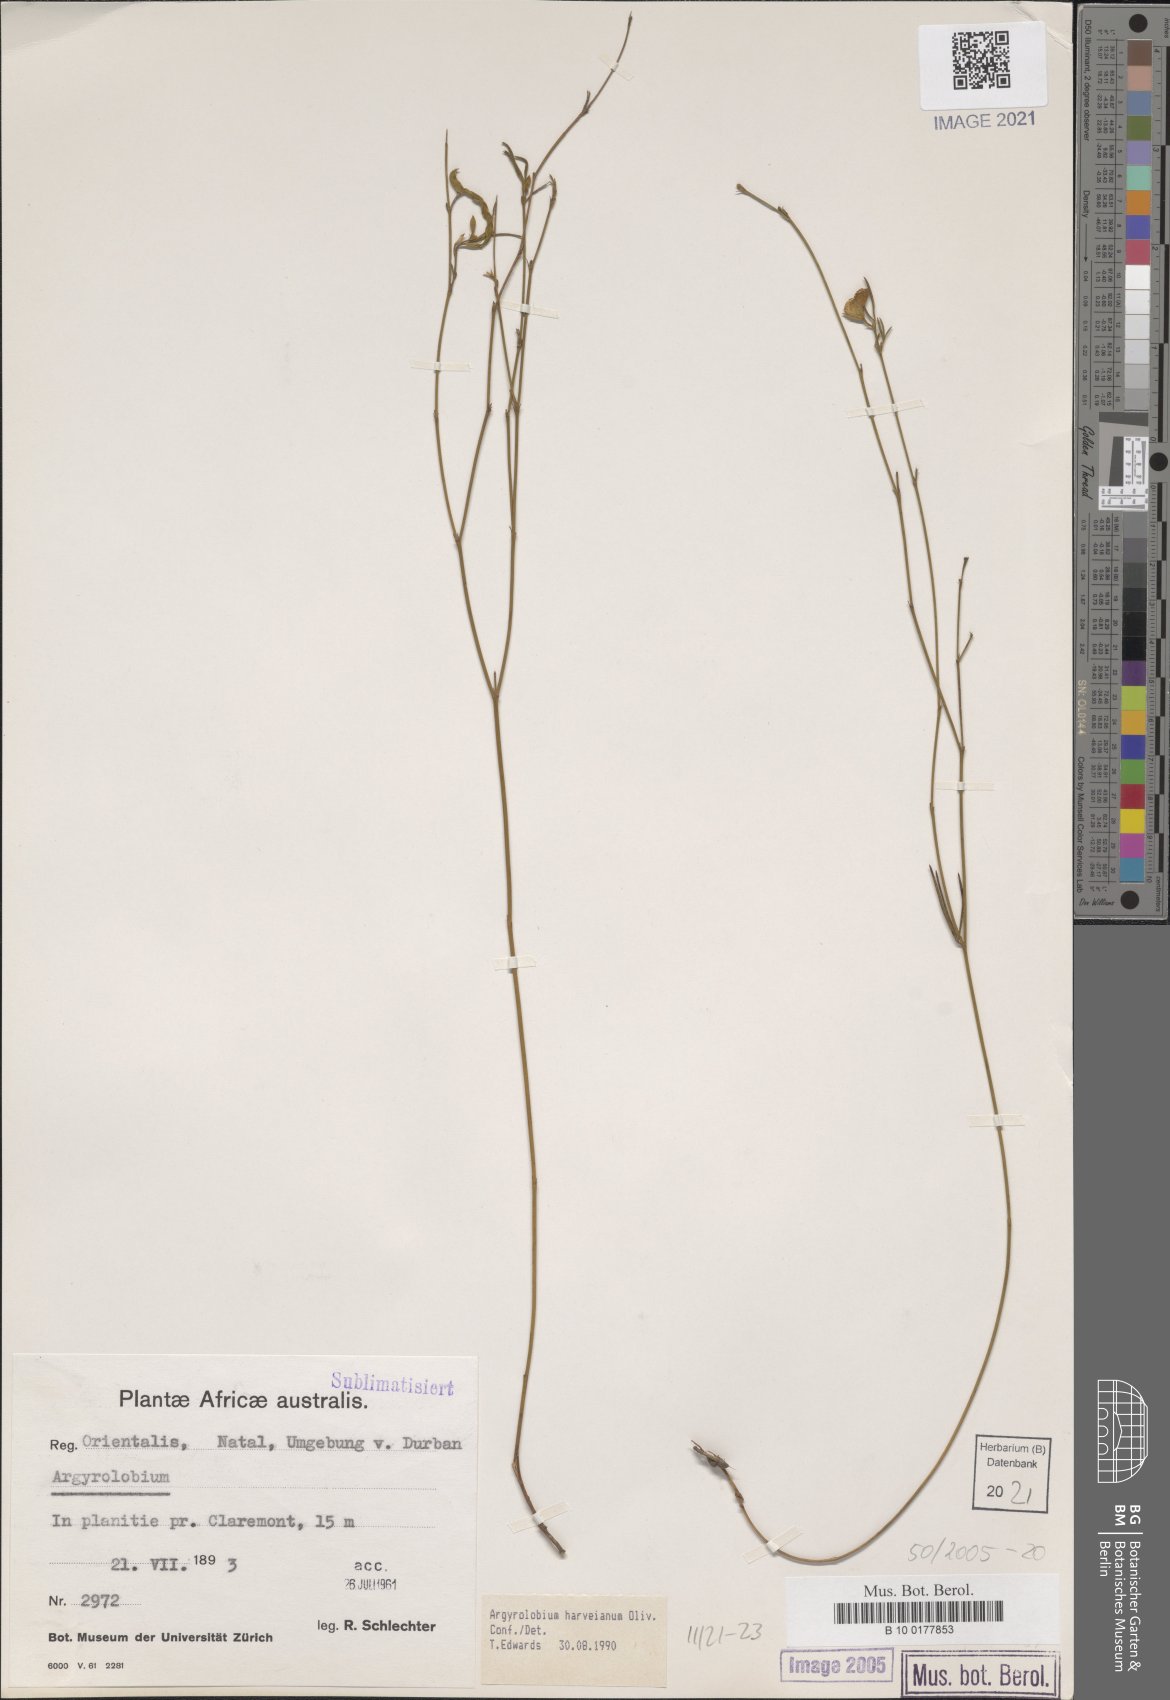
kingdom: Plantae
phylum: Tracheophyta
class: Magnoliopsida
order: Fabales
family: Fabaceae
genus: Argyrolobium
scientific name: Argyrolobium harveyanum
